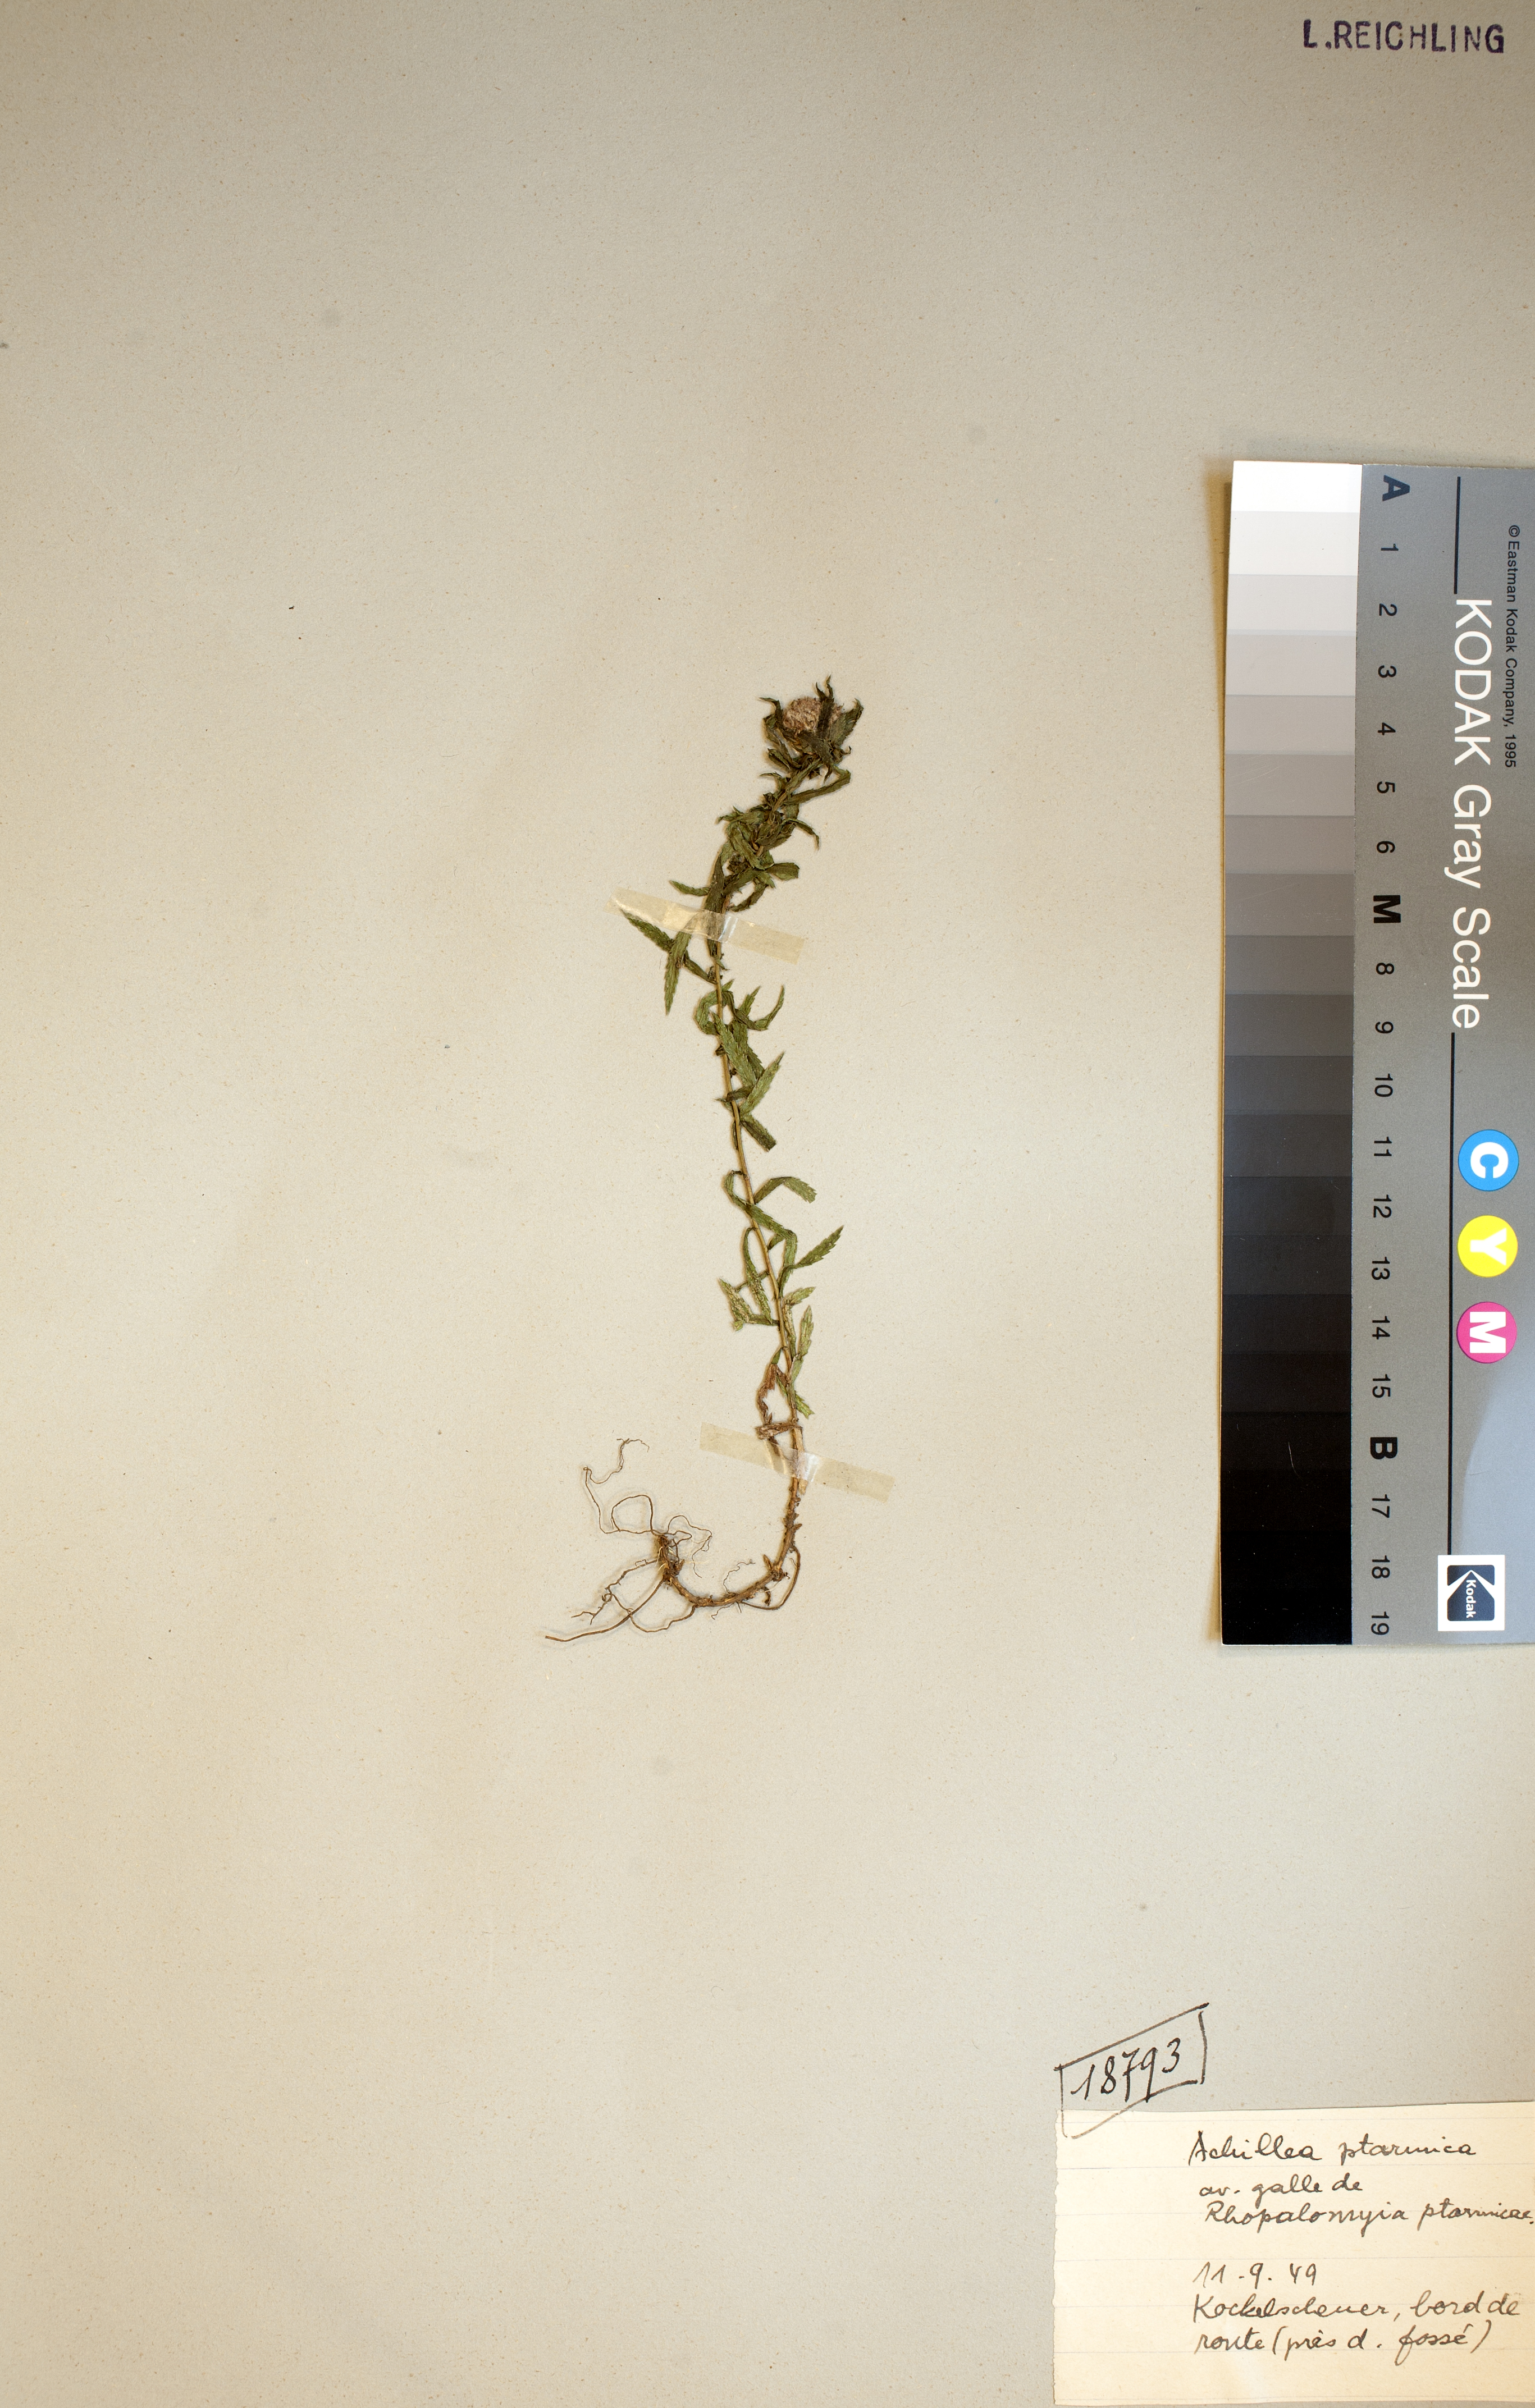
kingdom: Plantae
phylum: Tracheophyta
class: Magnoliopsida
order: Asterales
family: Asteraceae
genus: Achillea
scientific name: Achillea ptarmica
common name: Sneezeweed
